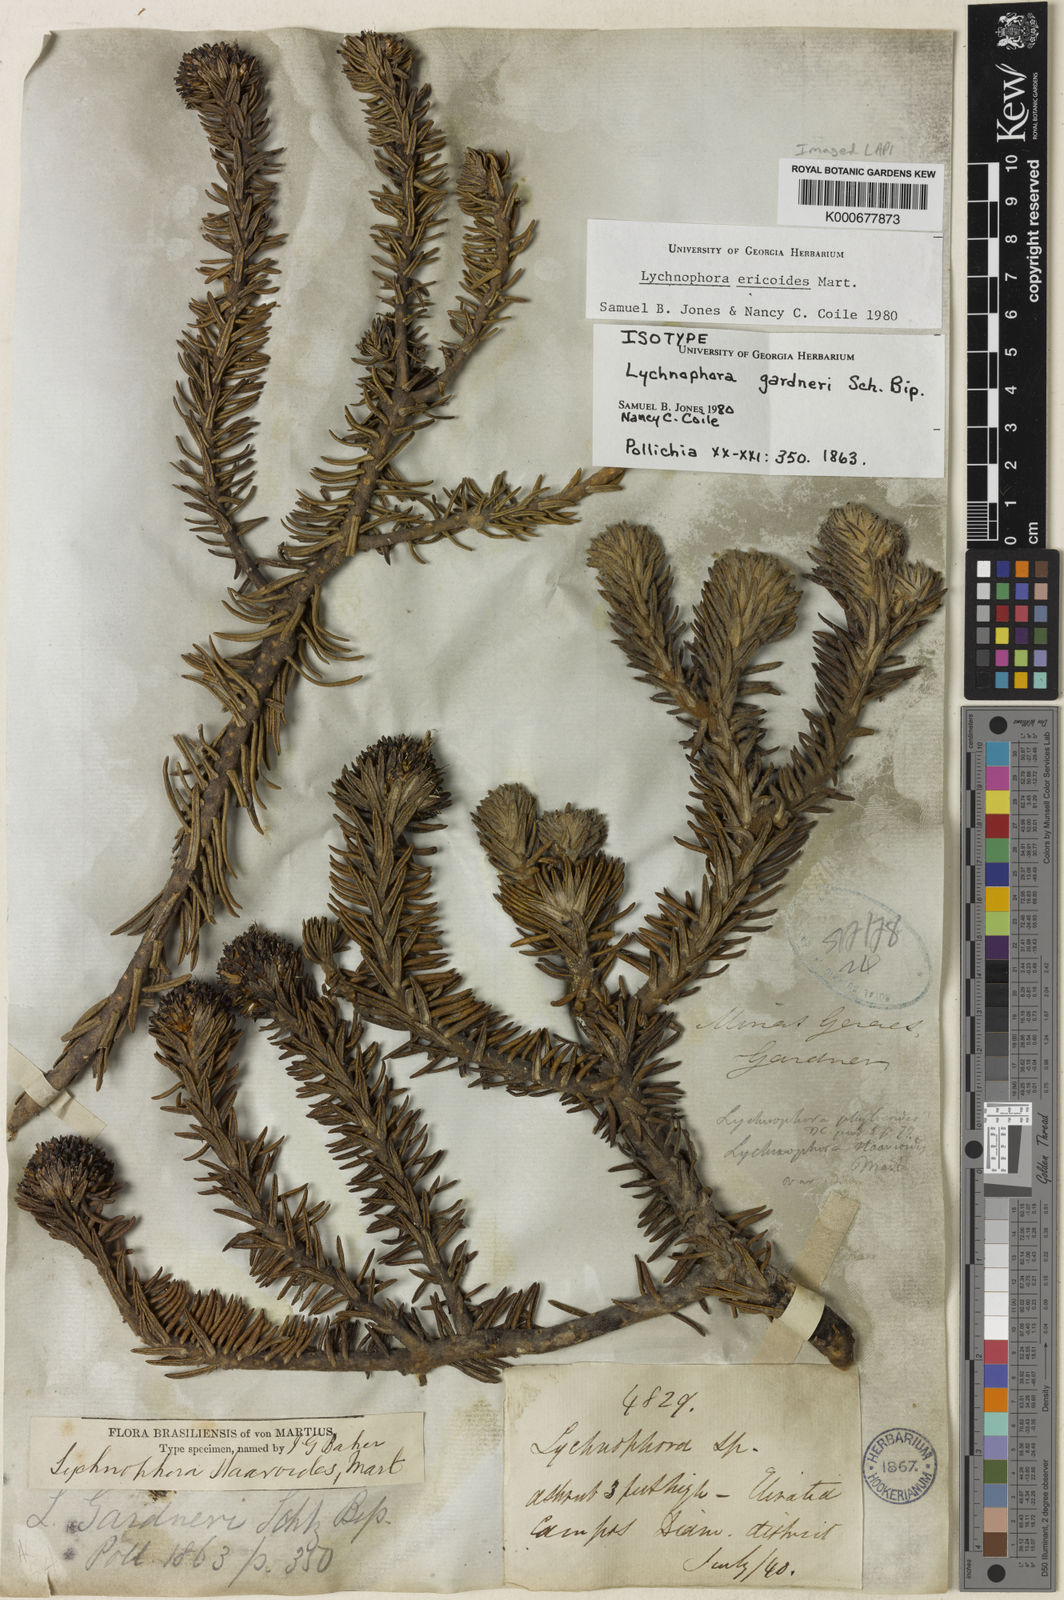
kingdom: Plantae
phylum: Tracheophyta
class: Magnoliopsida
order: Asterales
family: Asteraceae
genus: Lychnophora
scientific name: Lychnophora ericoides
